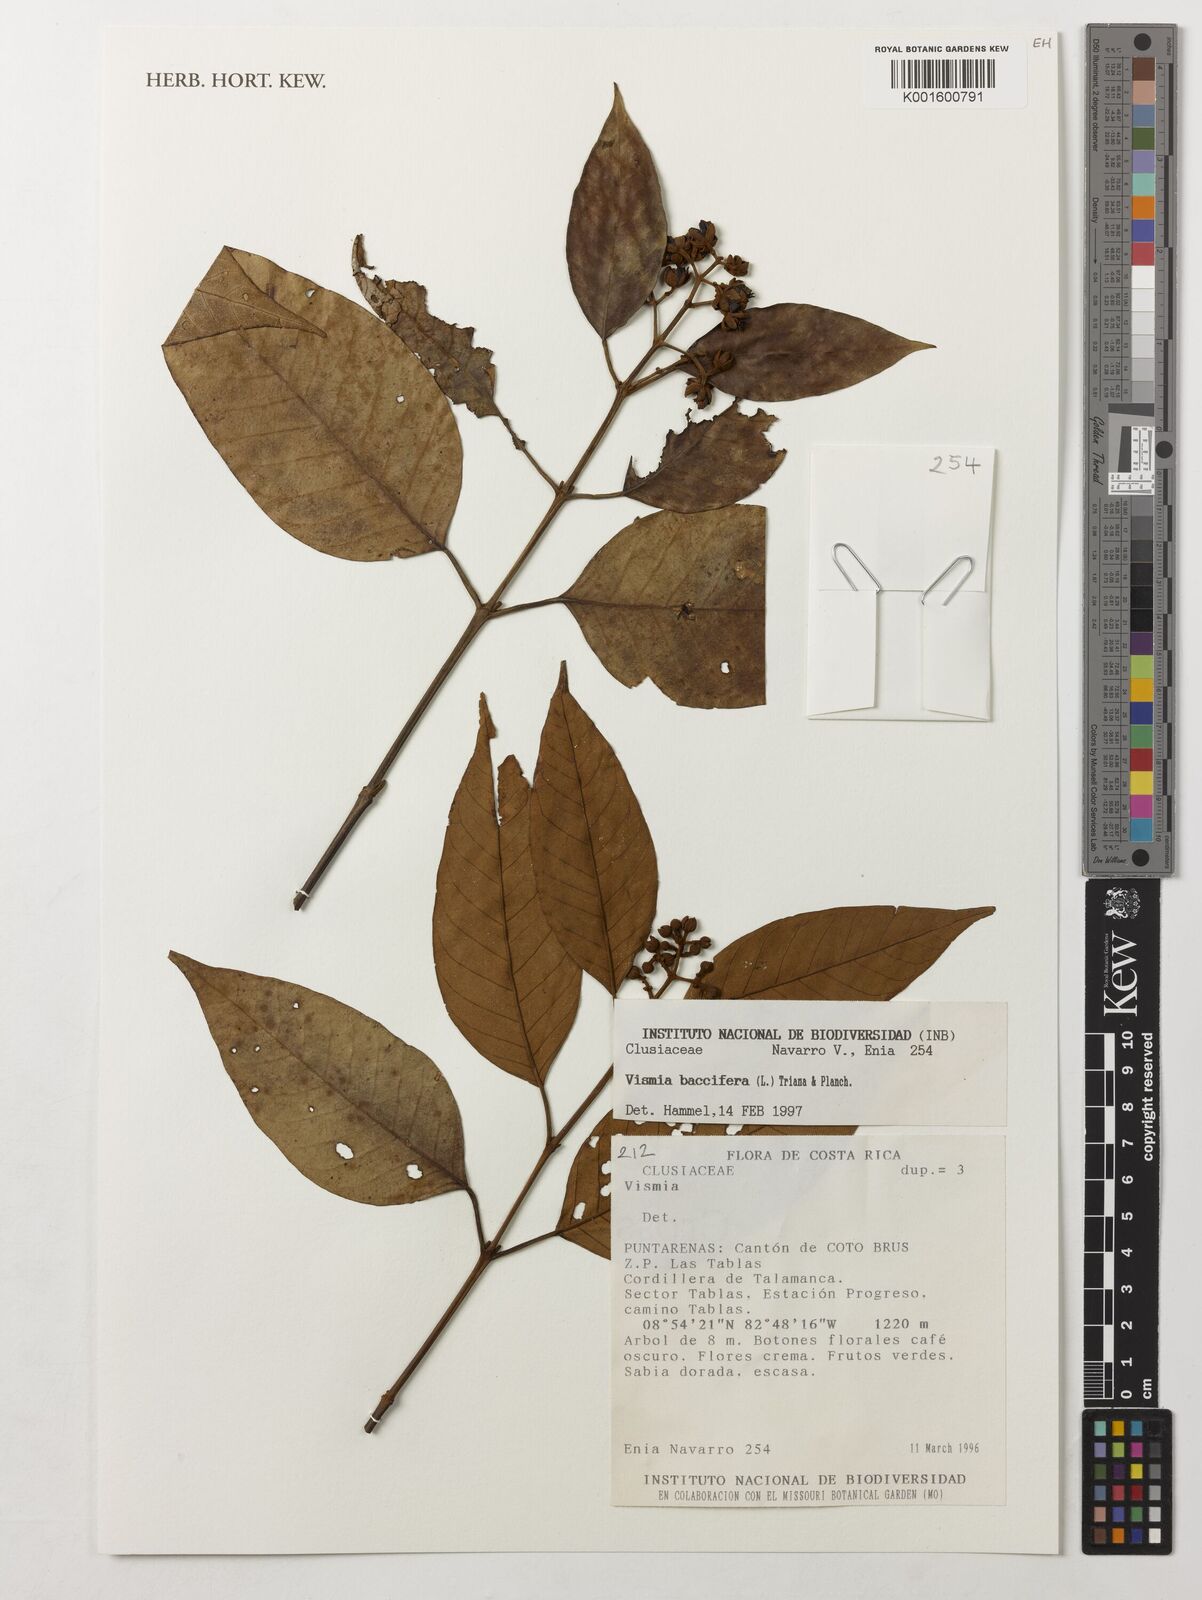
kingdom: Plantae
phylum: Tracheophyta
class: Magnoliopsida
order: Malpighiales
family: Hypericaceae
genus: Vismia
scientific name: Vismia baccifera
